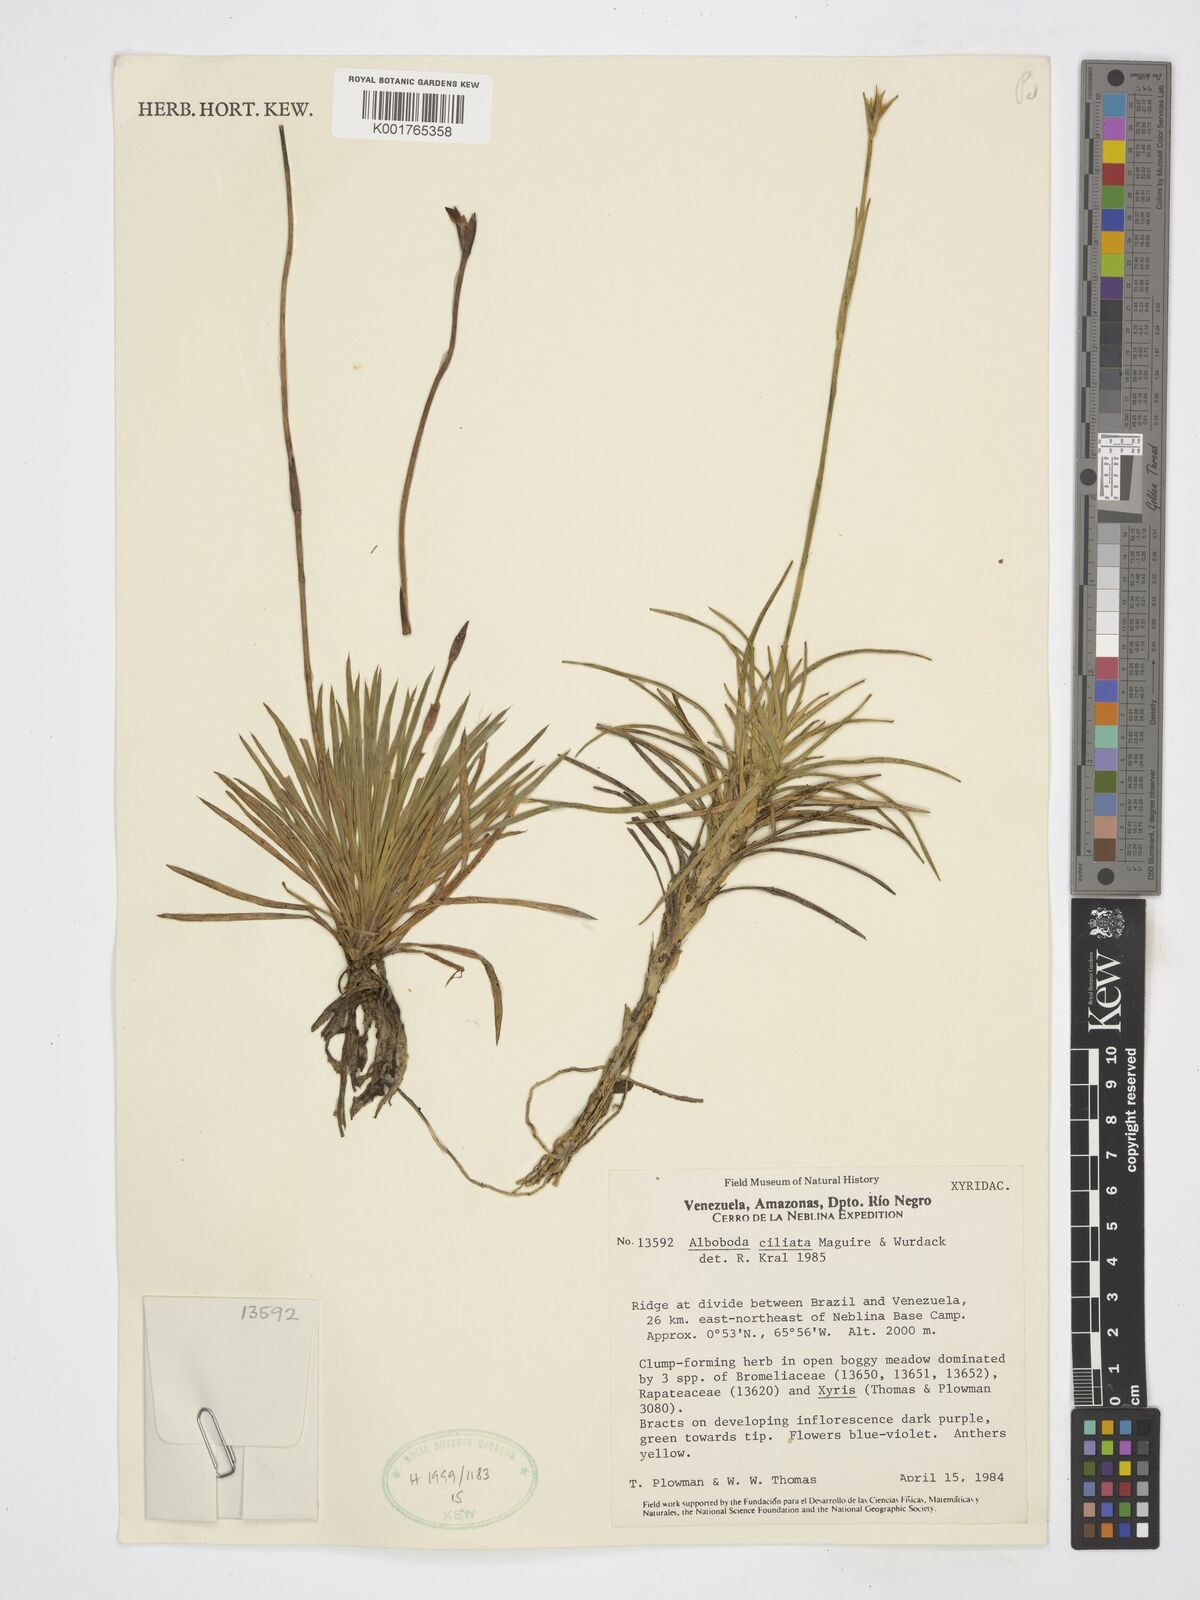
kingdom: Plantae
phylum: Tracheophyta
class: Liliopsida
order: Poales
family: Xyridaceae
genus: Abolboda
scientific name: Abolboda ciliata
